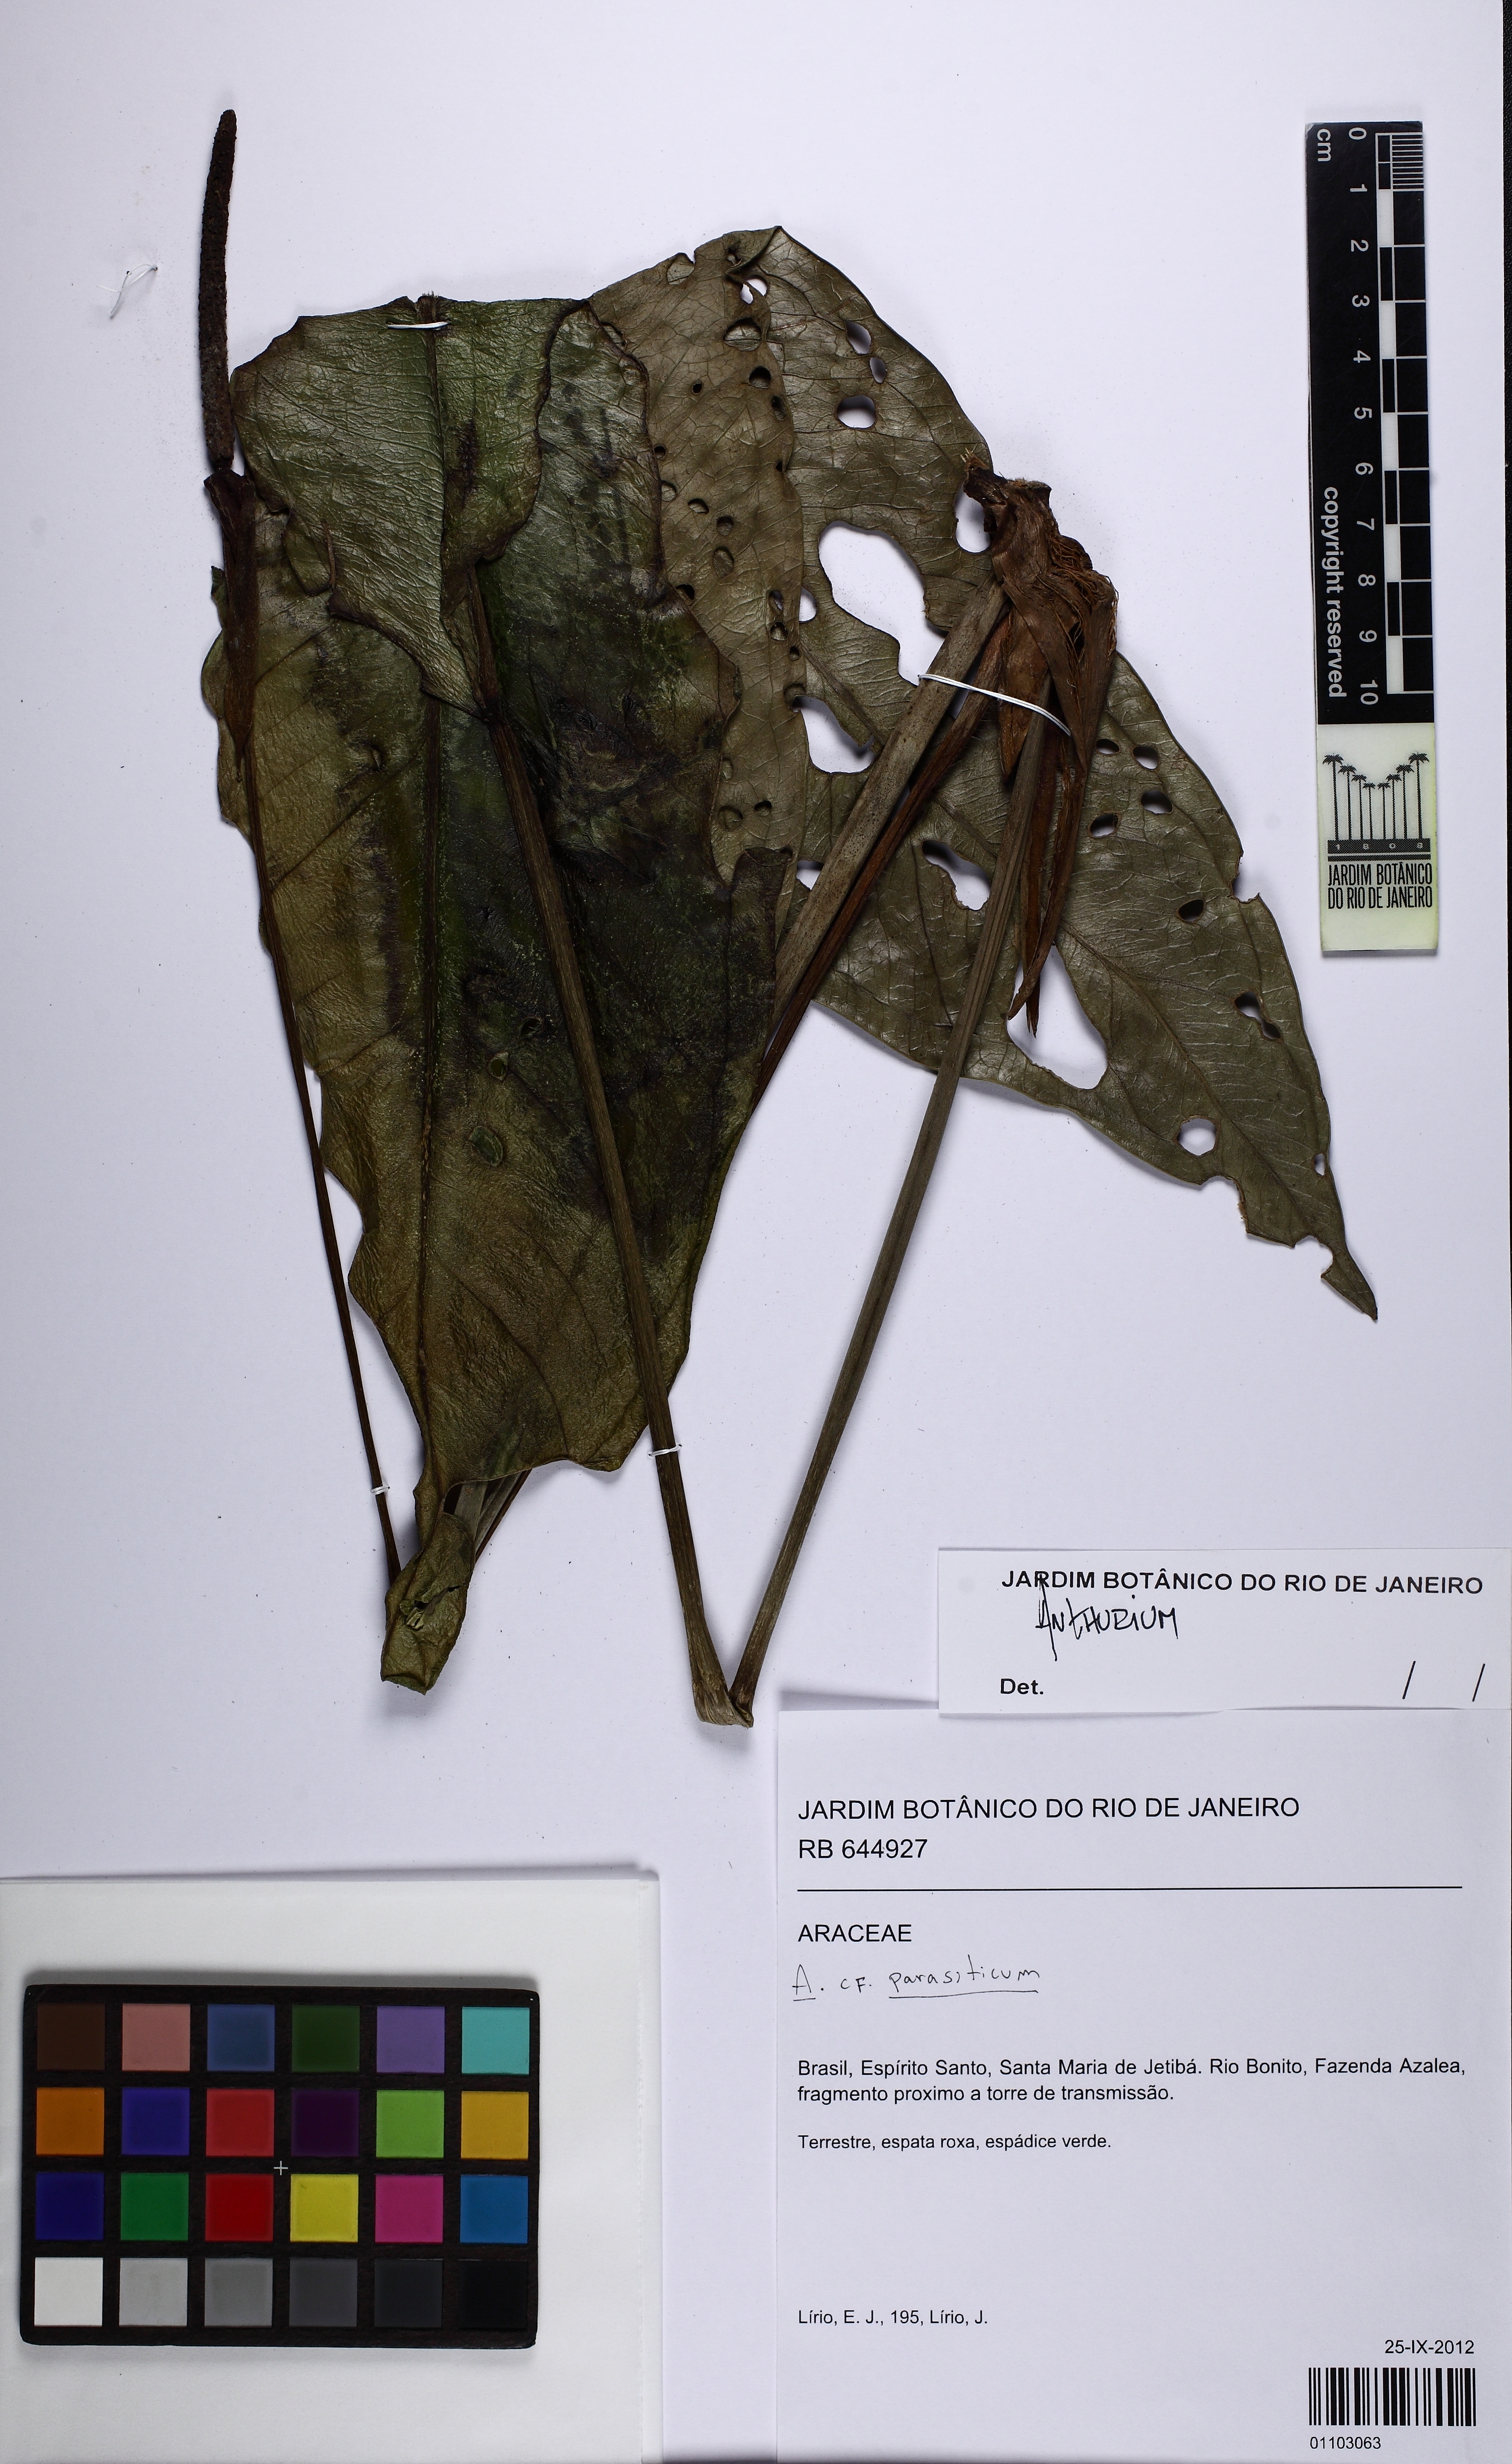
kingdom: Plantae
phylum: Tracheophyta
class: Liliopsida
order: Alismatales
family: Araceae
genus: Anthurium
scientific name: Anthurium
